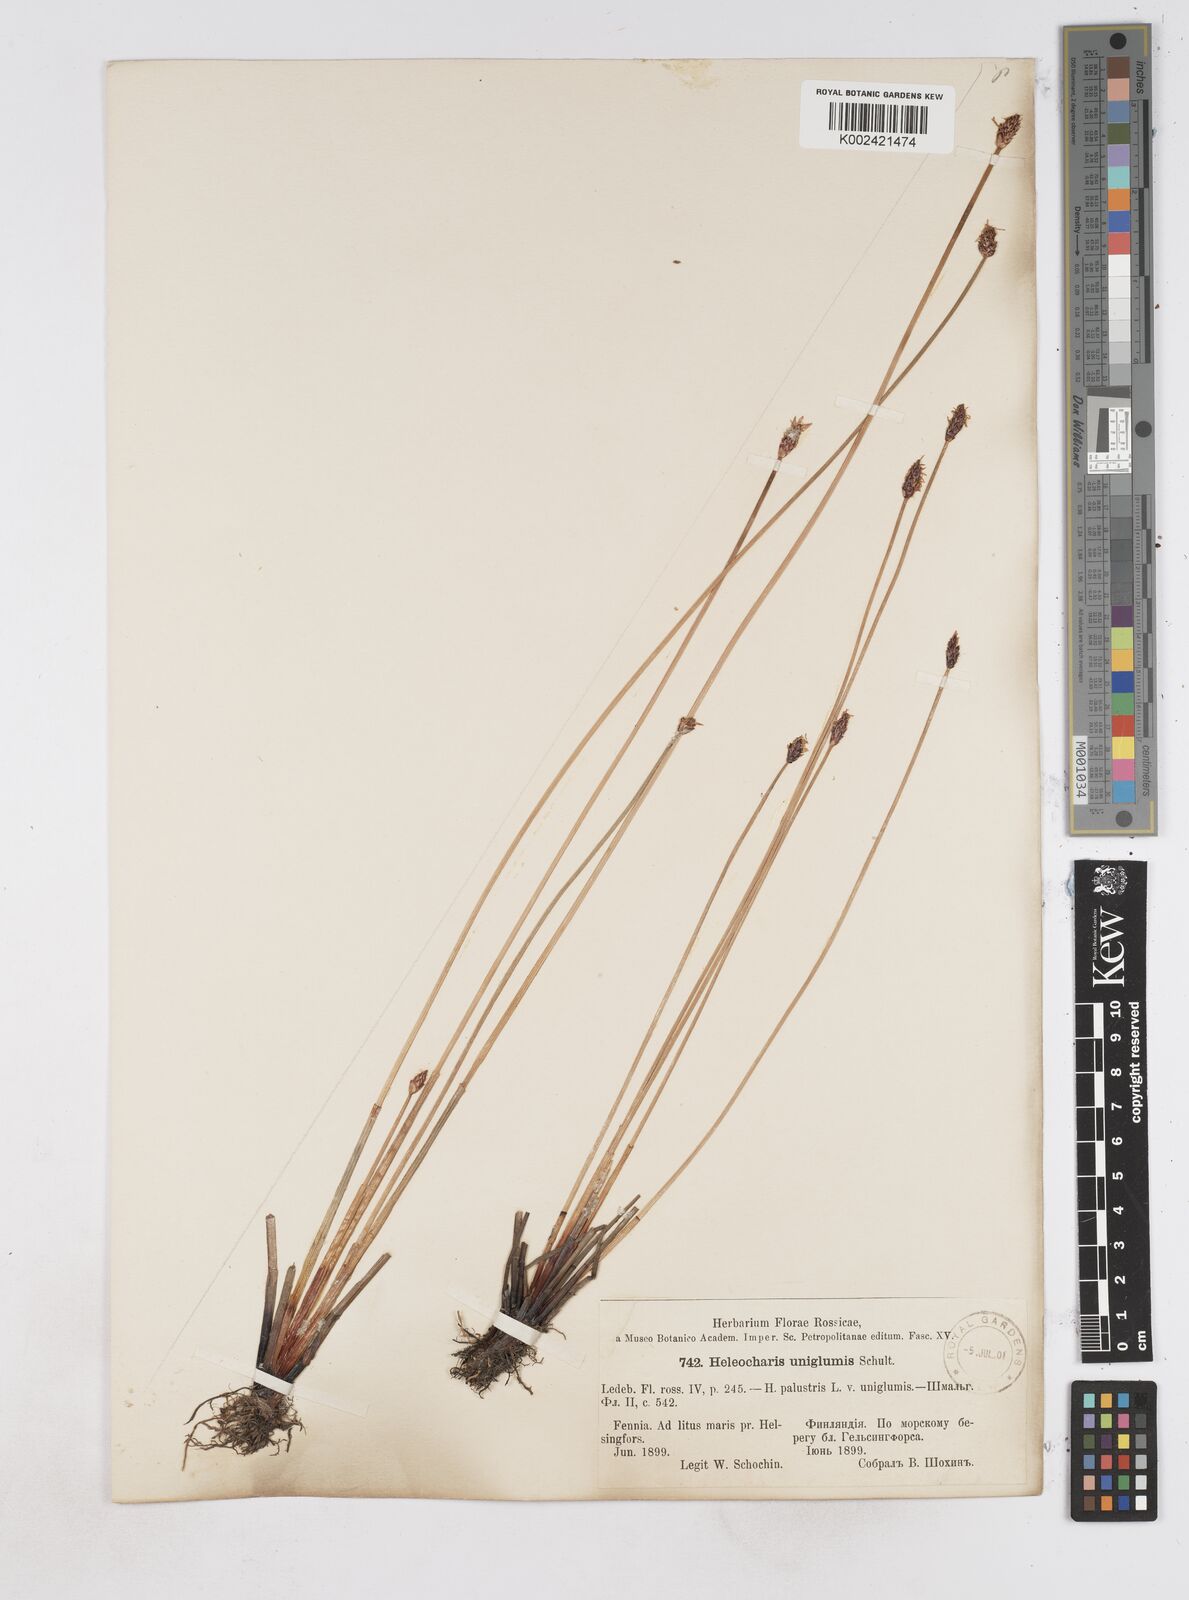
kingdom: Plantae
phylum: Tracheophyta
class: Liliopsida
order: Poales
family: Cyperaceae
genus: Eleocharis
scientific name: Eleocharis uniglumis
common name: Slender spike-rush
